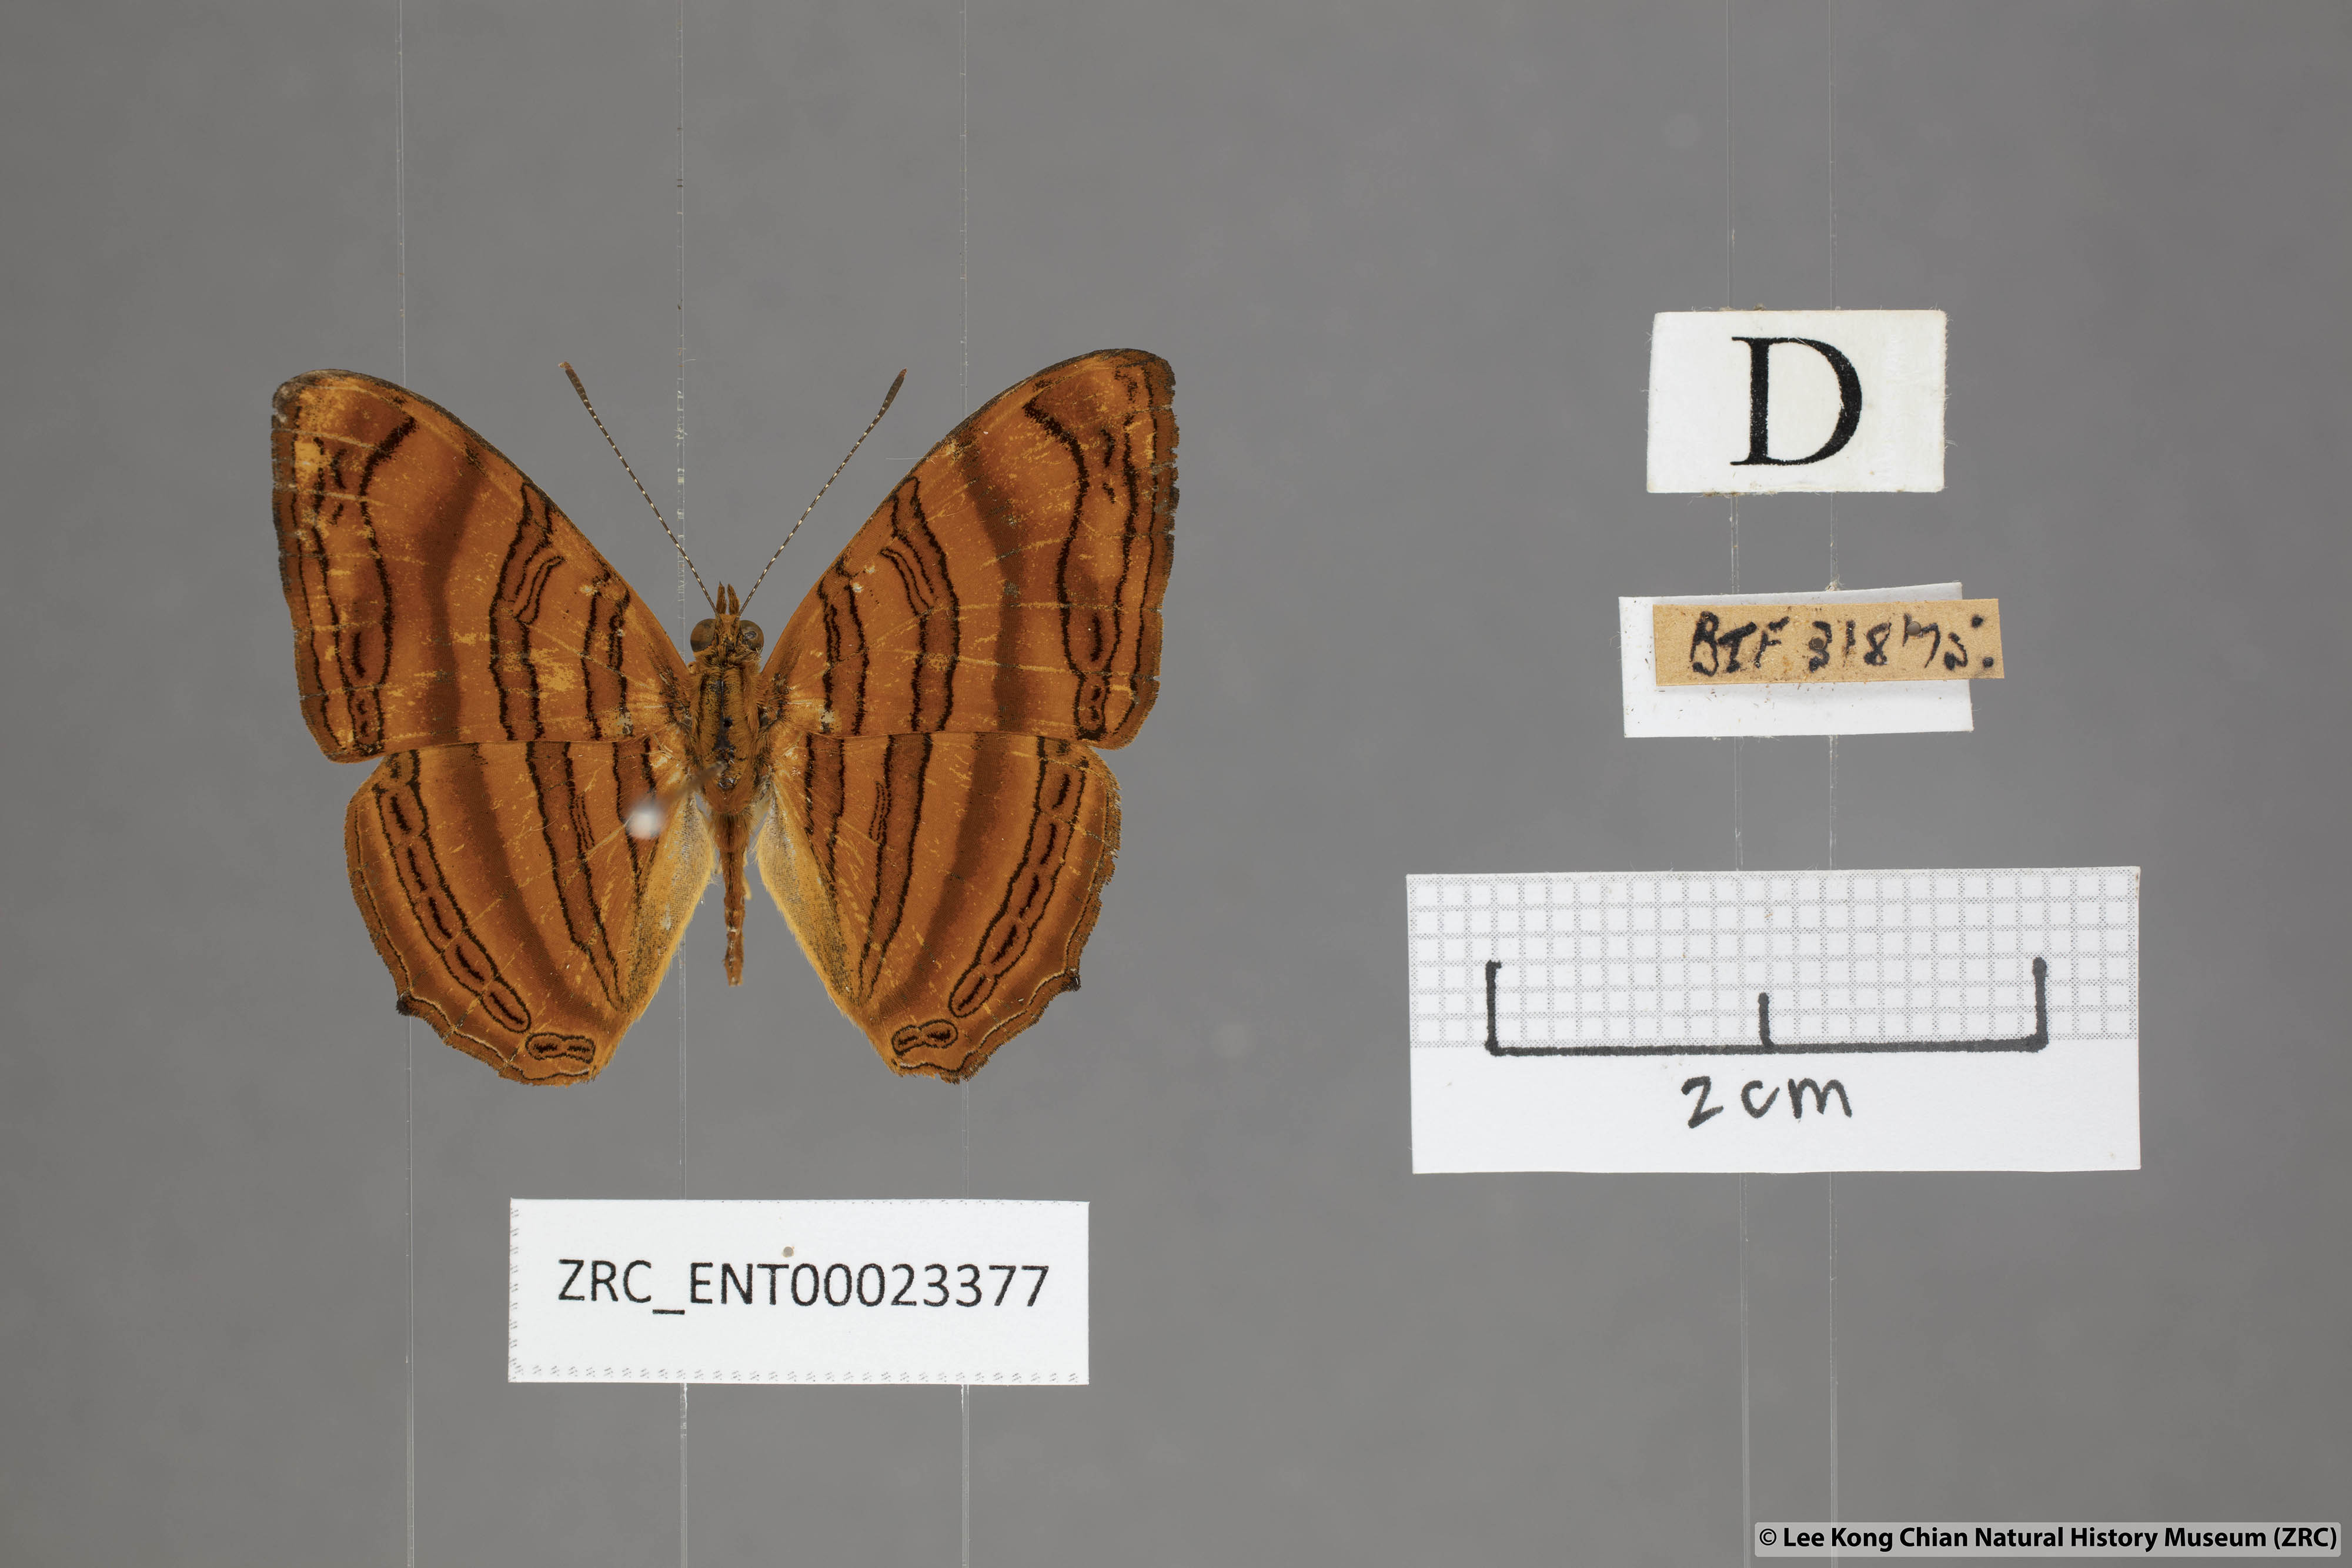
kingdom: Animalia
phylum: Arthropoda
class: Insecta
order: Lepidoptera
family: Nymphalidae
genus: Chersonesia
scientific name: Chersonesia rahria
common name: Wavy maplet
